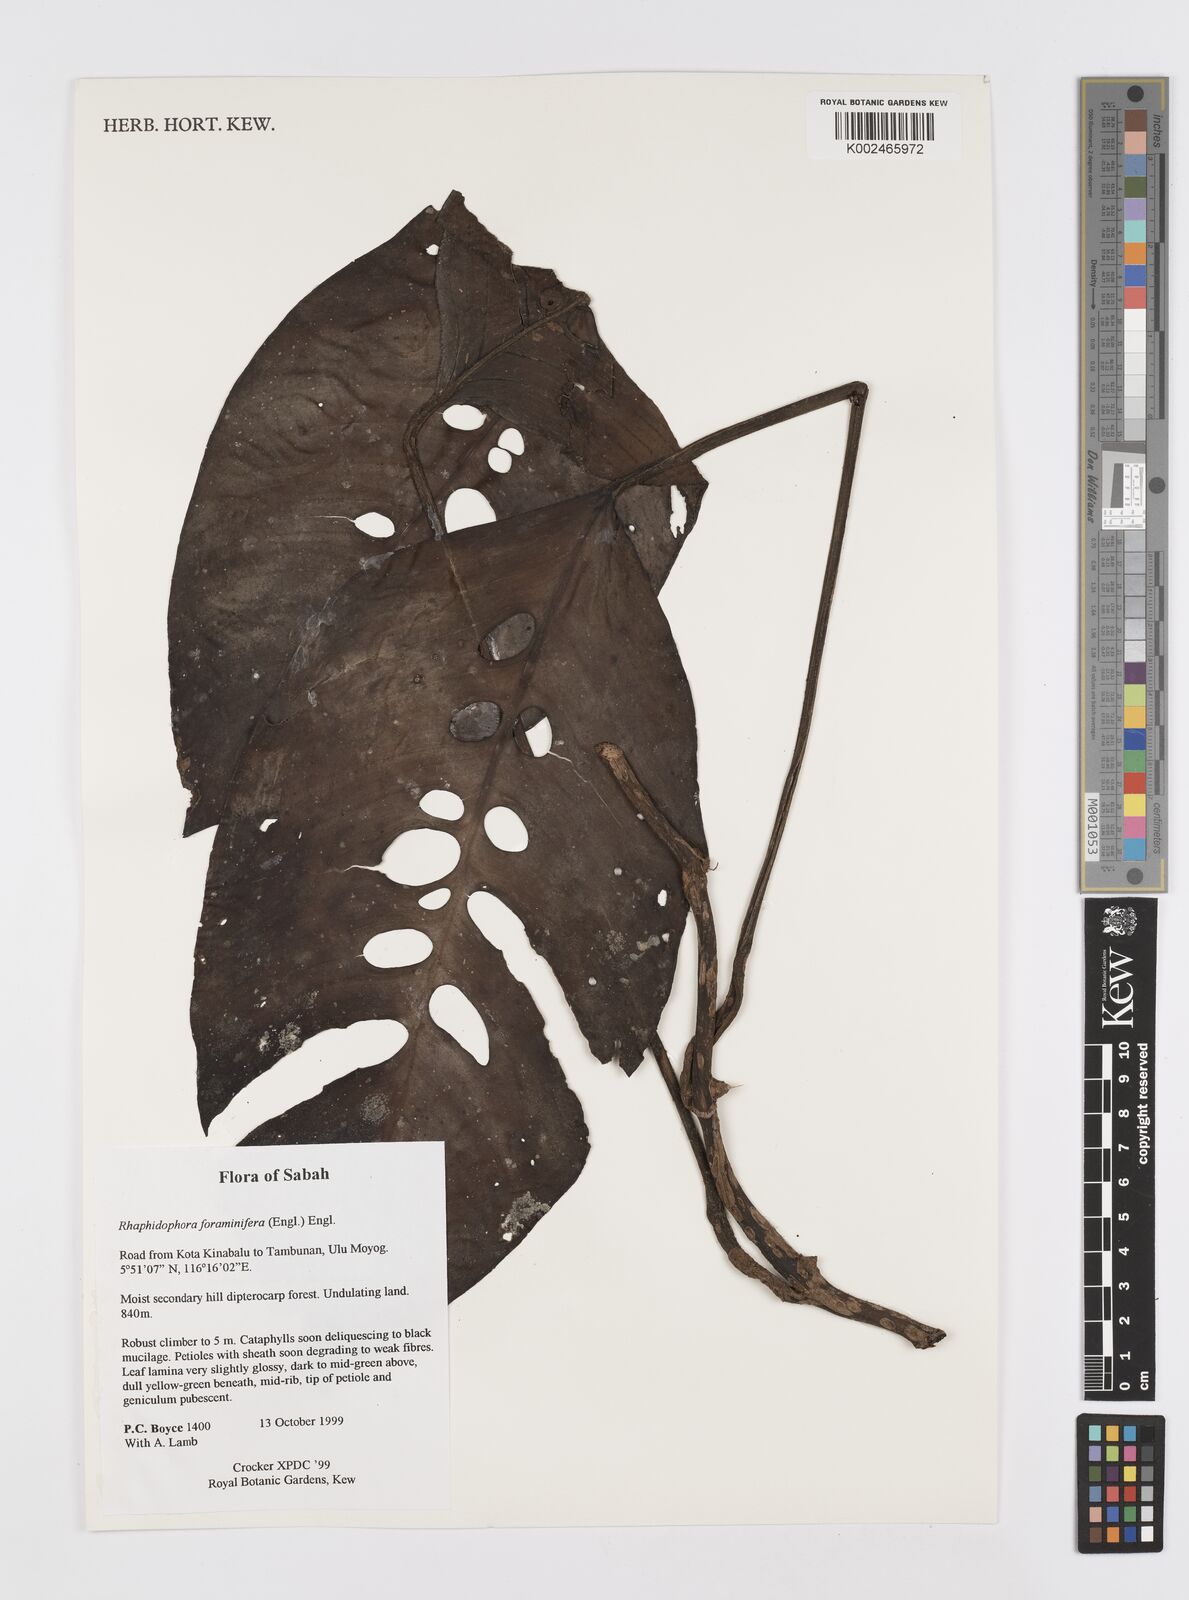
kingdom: Plantae
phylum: Tracheophyta
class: Liliopsida
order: Alismatales
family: Araceae
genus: Rhaphidophora
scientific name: Rhaphidophora foraminifera
